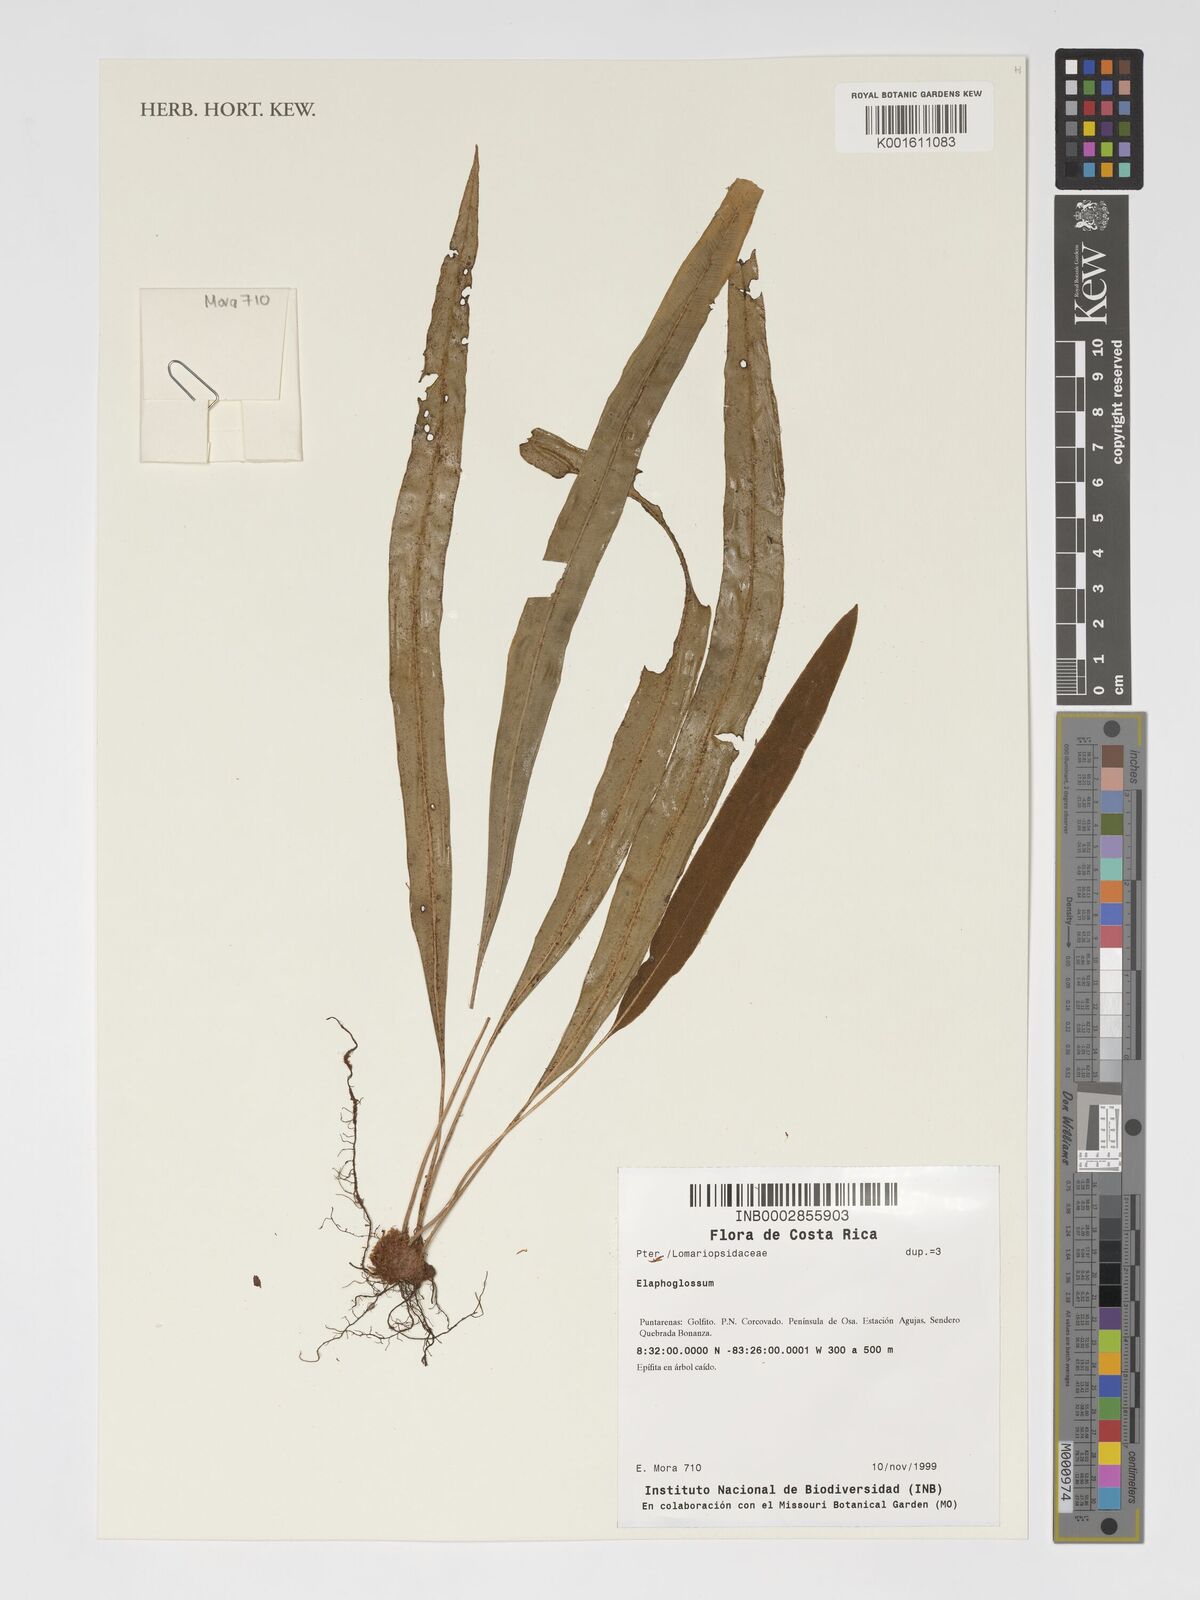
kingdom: Plantae
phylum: Tracheophyta
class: Polypodiopsida
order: Polypodiales
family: Dryopteridaceae
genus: Elaphoglossum
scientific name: Elaphoglossum
